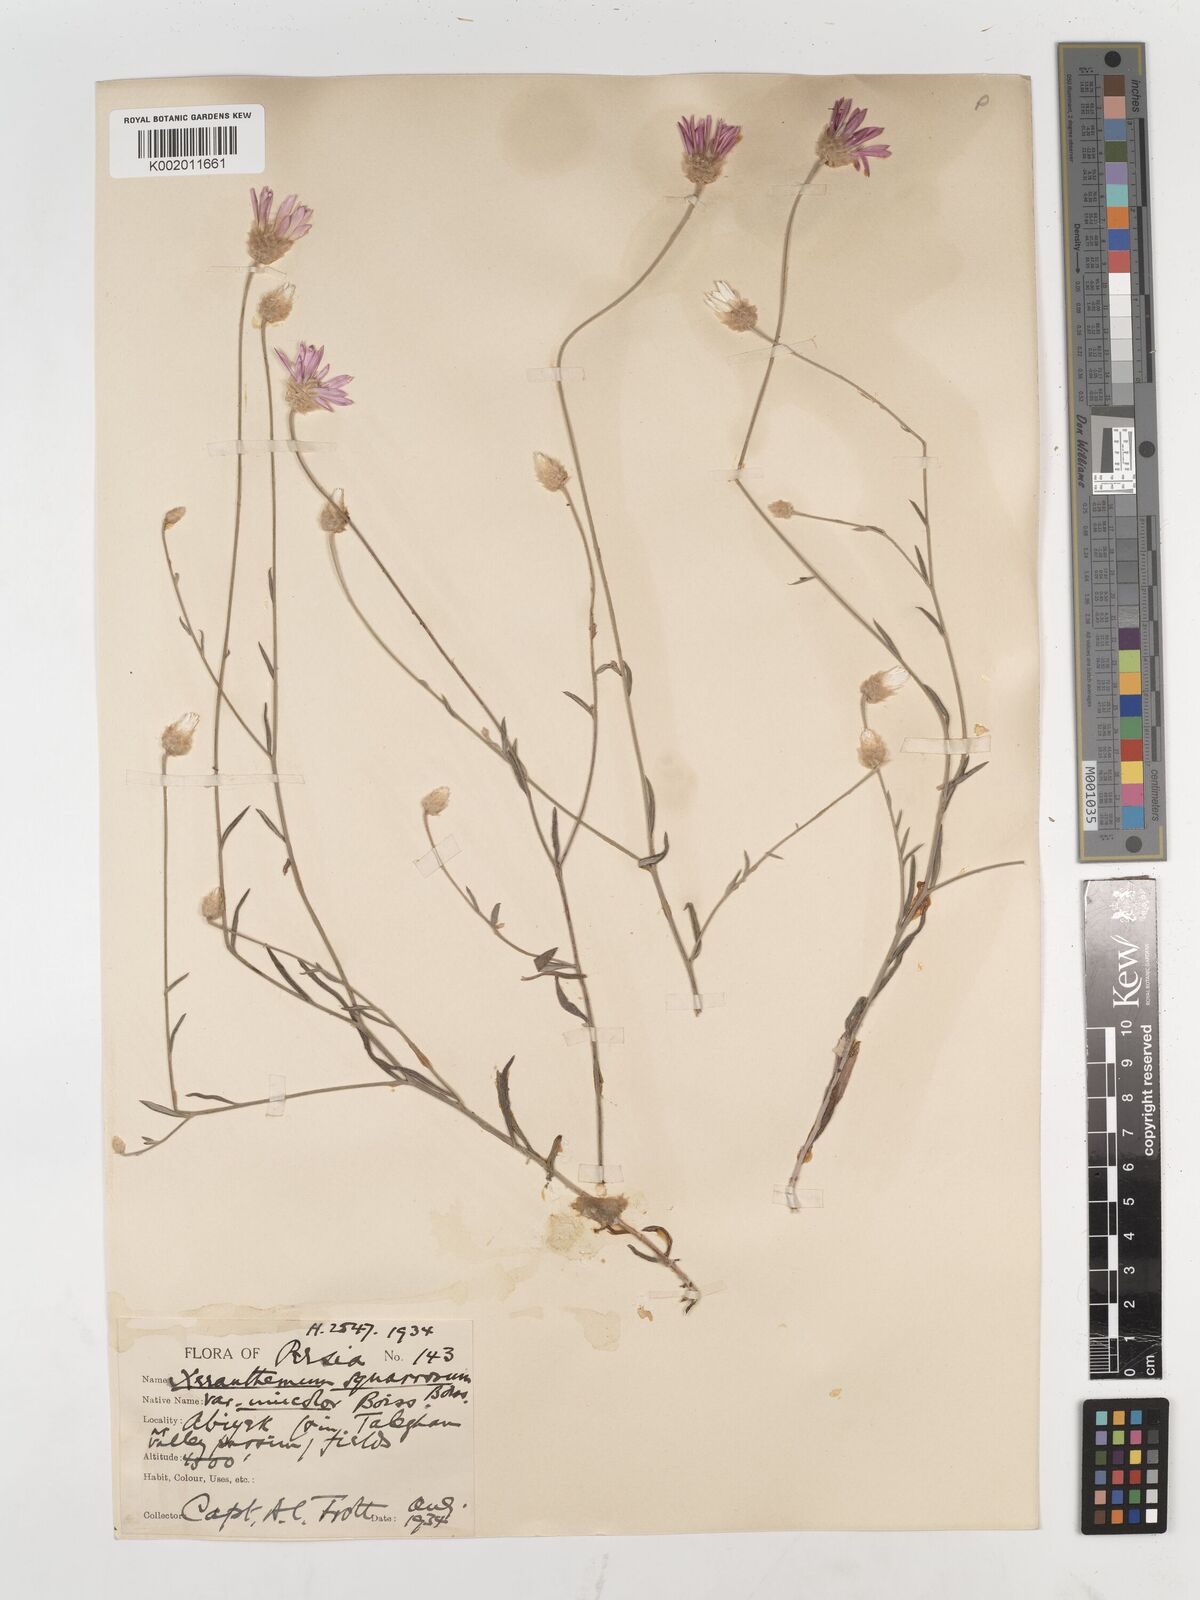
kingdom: Plantae
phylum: Tracheophyta
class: Magnoliopsida
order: Asterales
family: Asteraceae
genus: Xeranthemum
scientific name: Xeranthemum squarrosum
